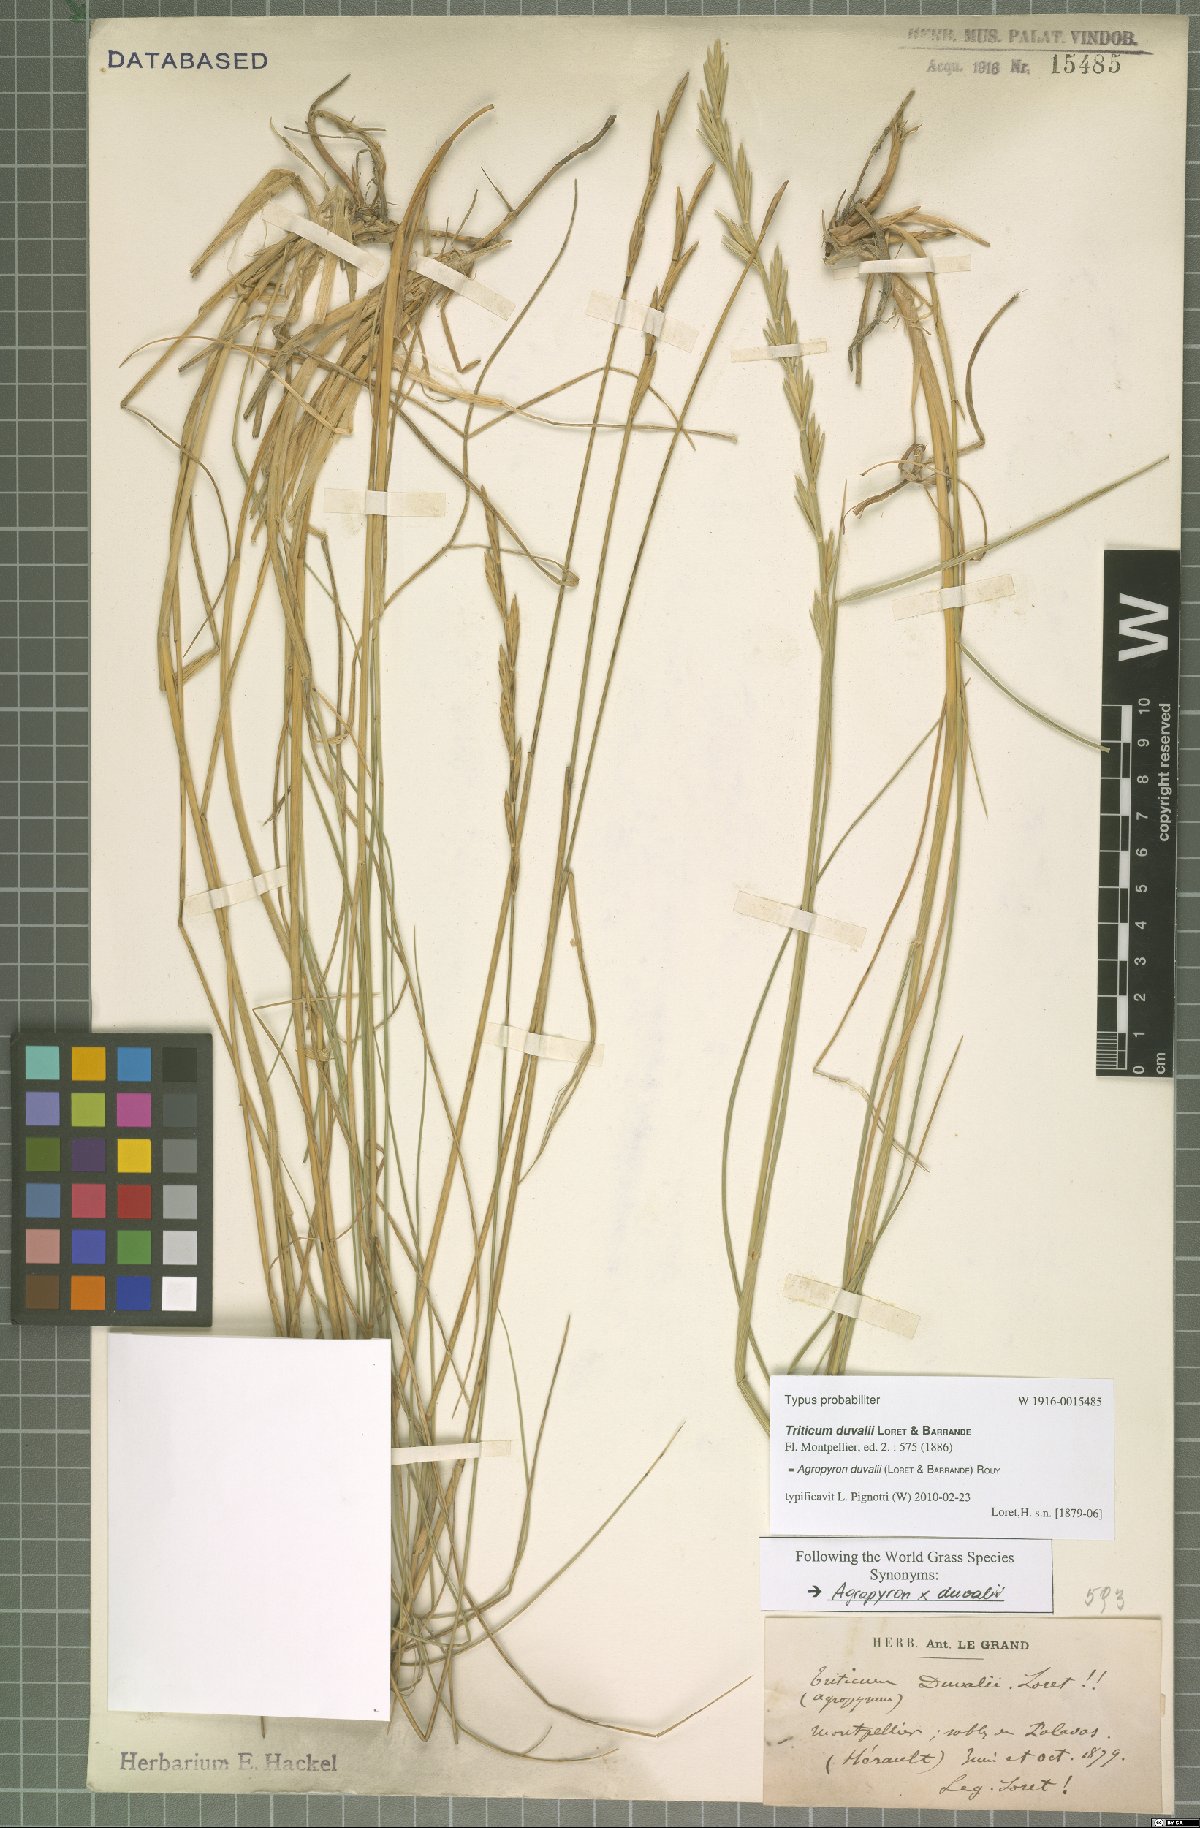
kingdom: Plantae
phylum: Tracheophyta
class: Liliopsida
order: Poales
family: Poaceae
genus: Thinopyrum
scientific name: Thinopyrum acutum
